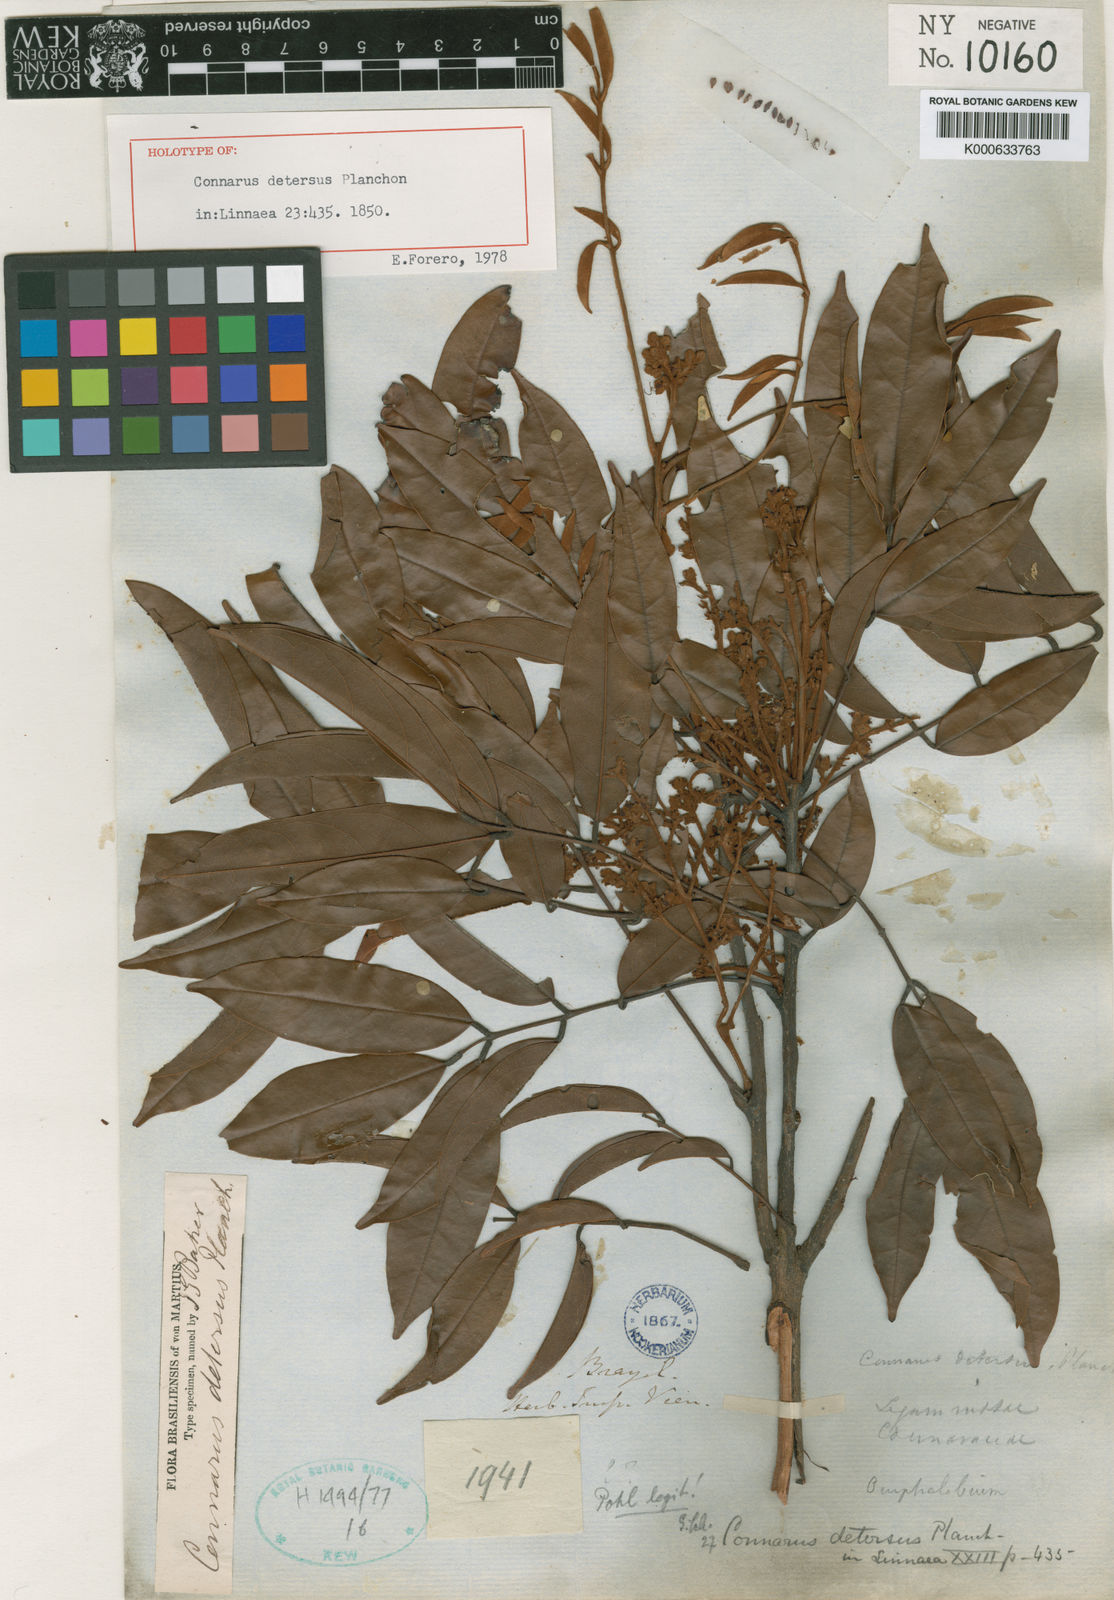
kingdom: Plantae
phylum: Tracheophyta
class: Magnoliopsida
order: Oxalidales
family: Connaraceae
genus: Connarus
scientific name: Connarus detersus
